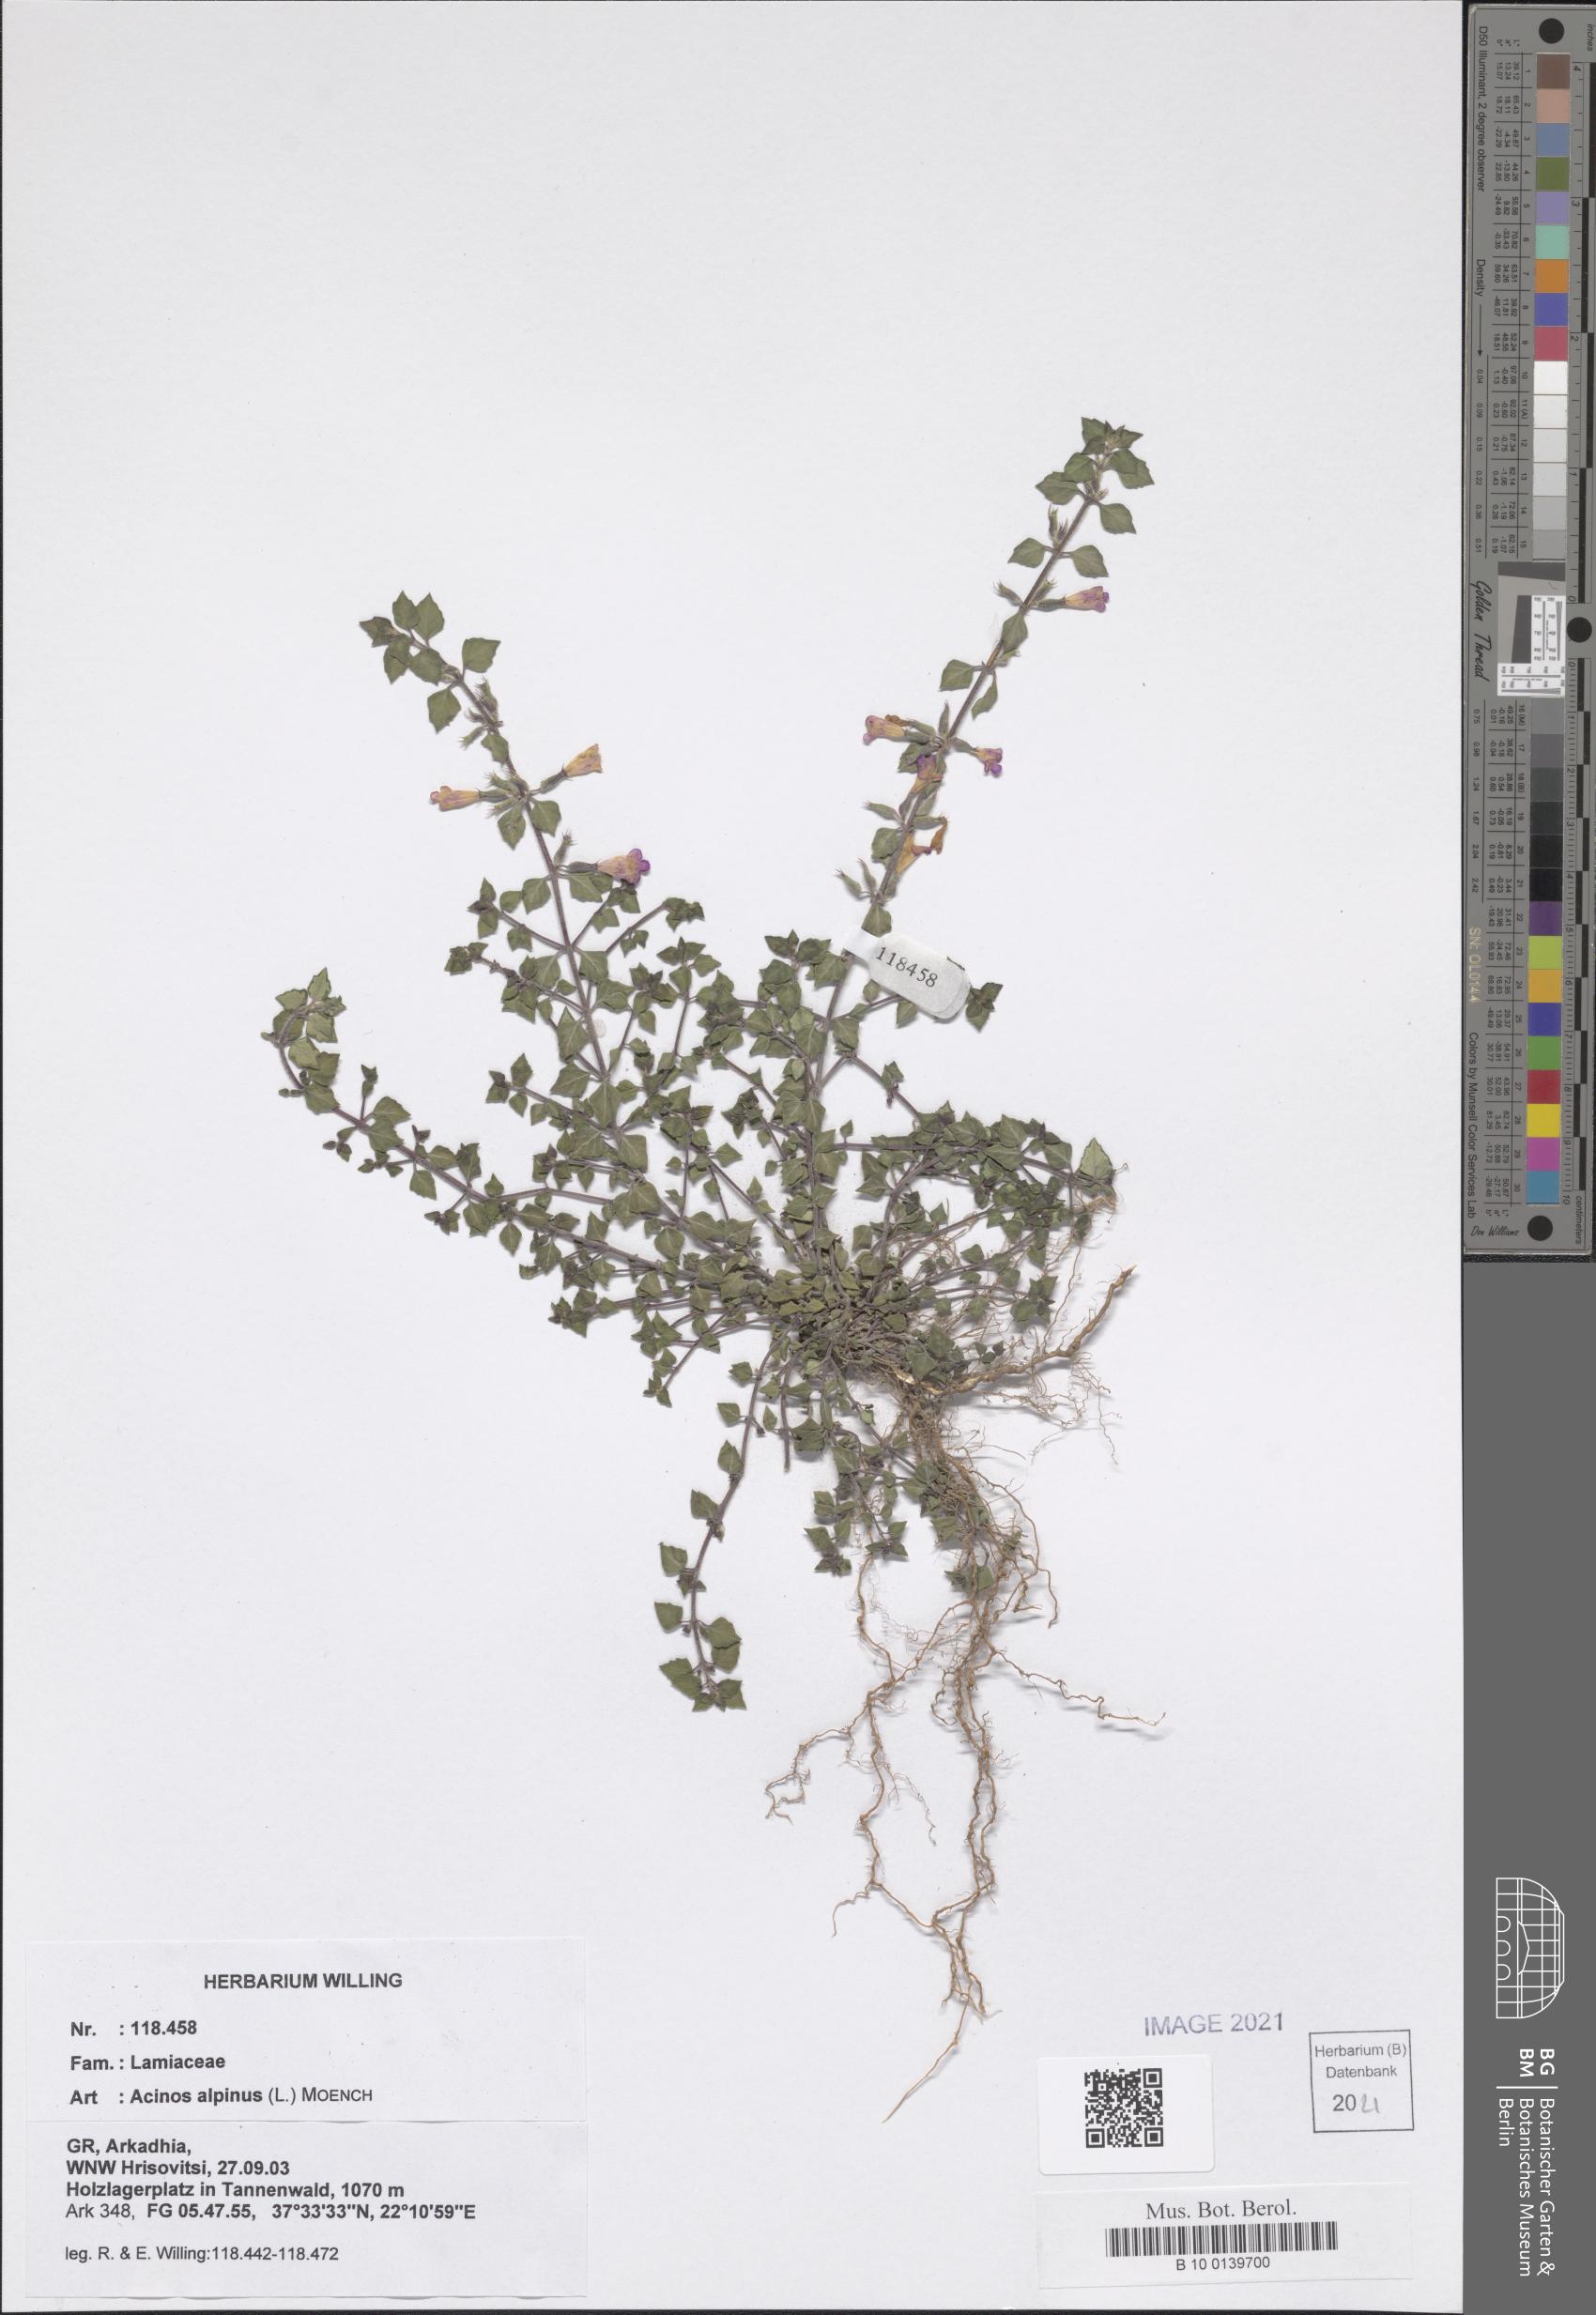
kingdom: Plantae
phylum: Tracheophyta
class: Magnoliopsida
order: Lamiales
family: Lamiaceae
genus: Clinopodium
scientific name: Clinopodium alpinum
